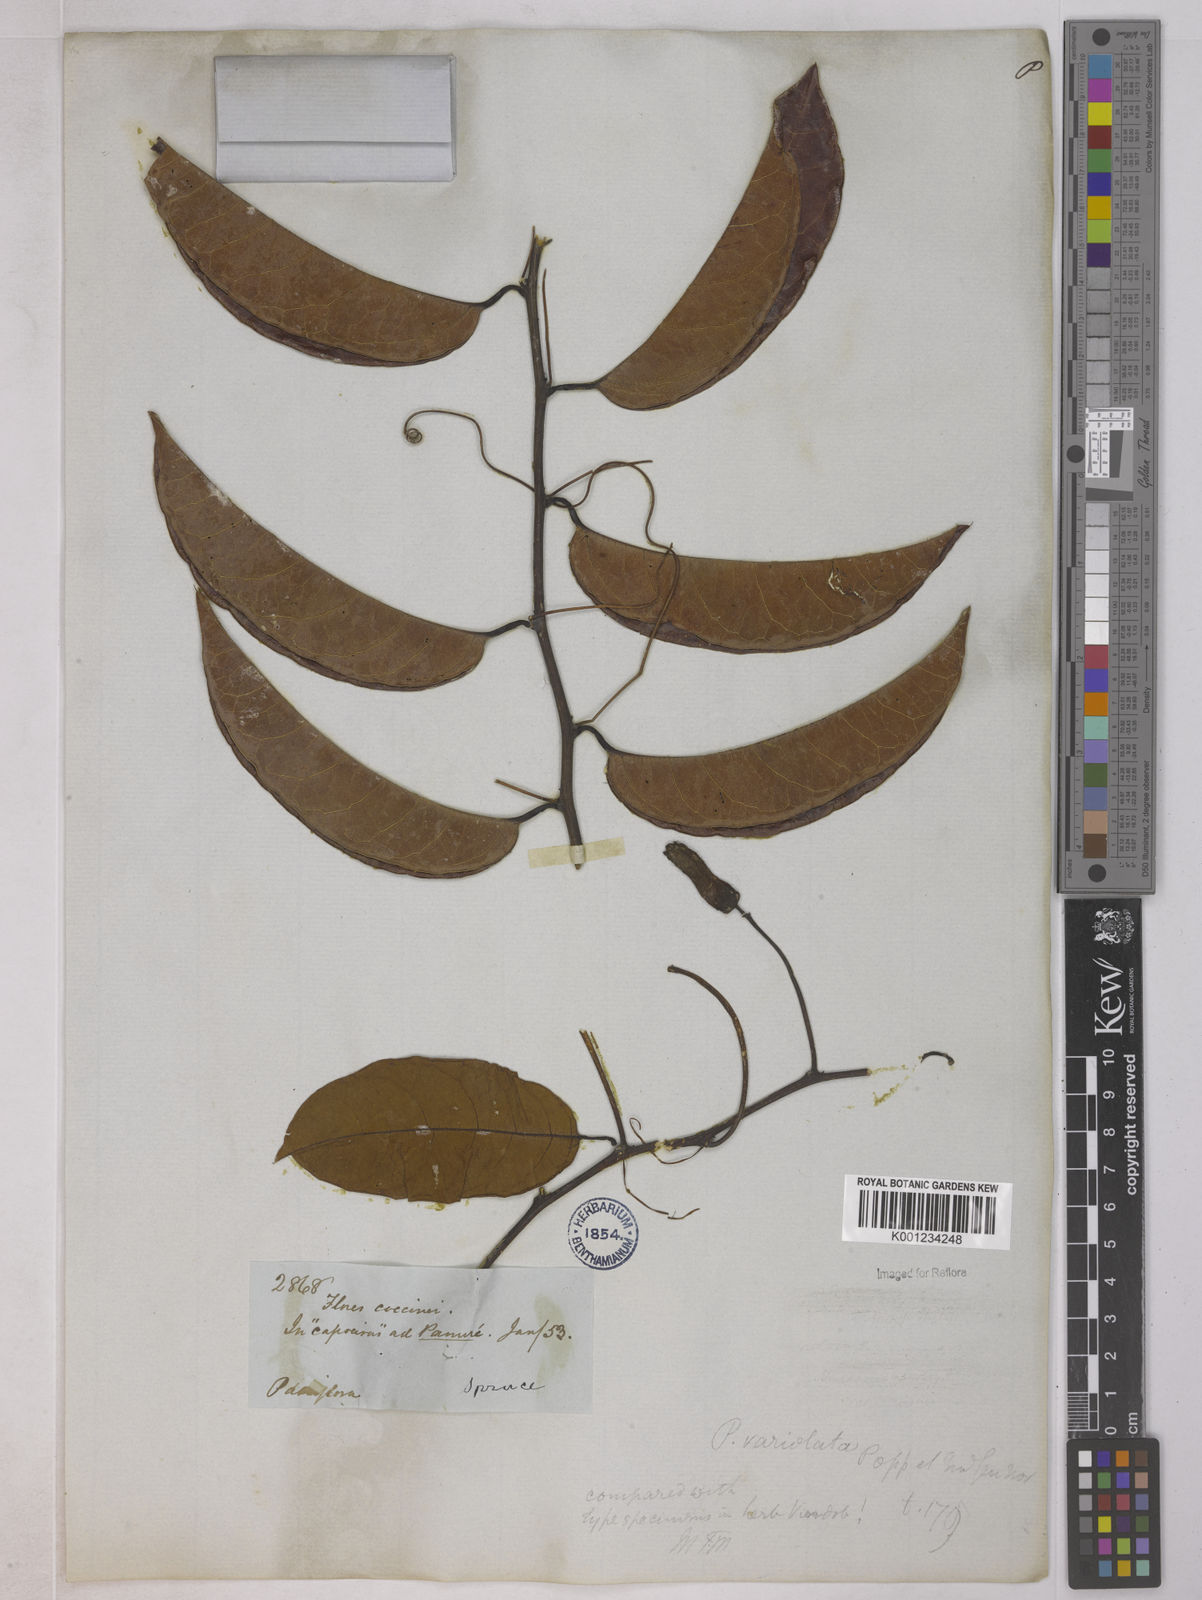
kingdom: Plantae
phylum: Tracheophyta
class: Magnoliopsida
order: Malpighiales
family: Passifloraceae
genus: Passiflora
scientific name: Passiflora variolata
